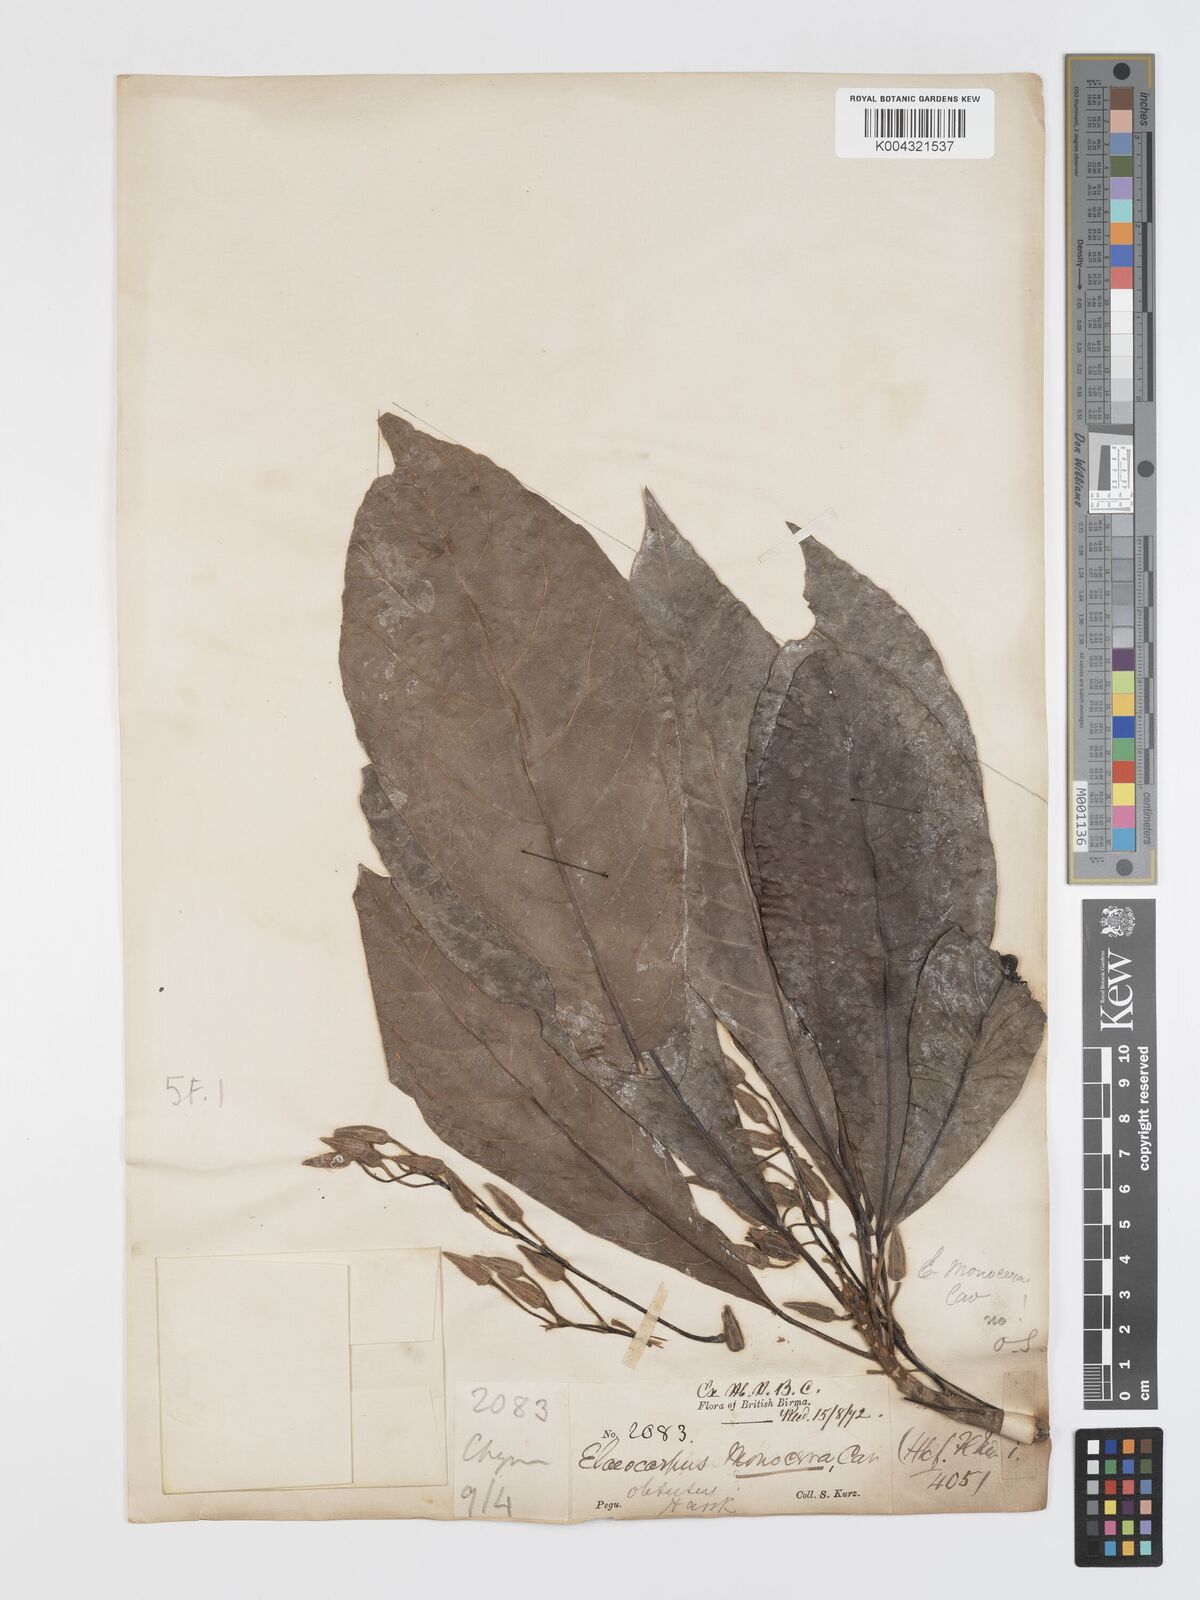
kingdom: Plantae
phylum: Tracheophyta
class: Magnoliopsida
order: Oxalidales
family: Elaeocarpaceae
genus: Elaeocarpus
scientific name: Elaeocarpus aristatus
